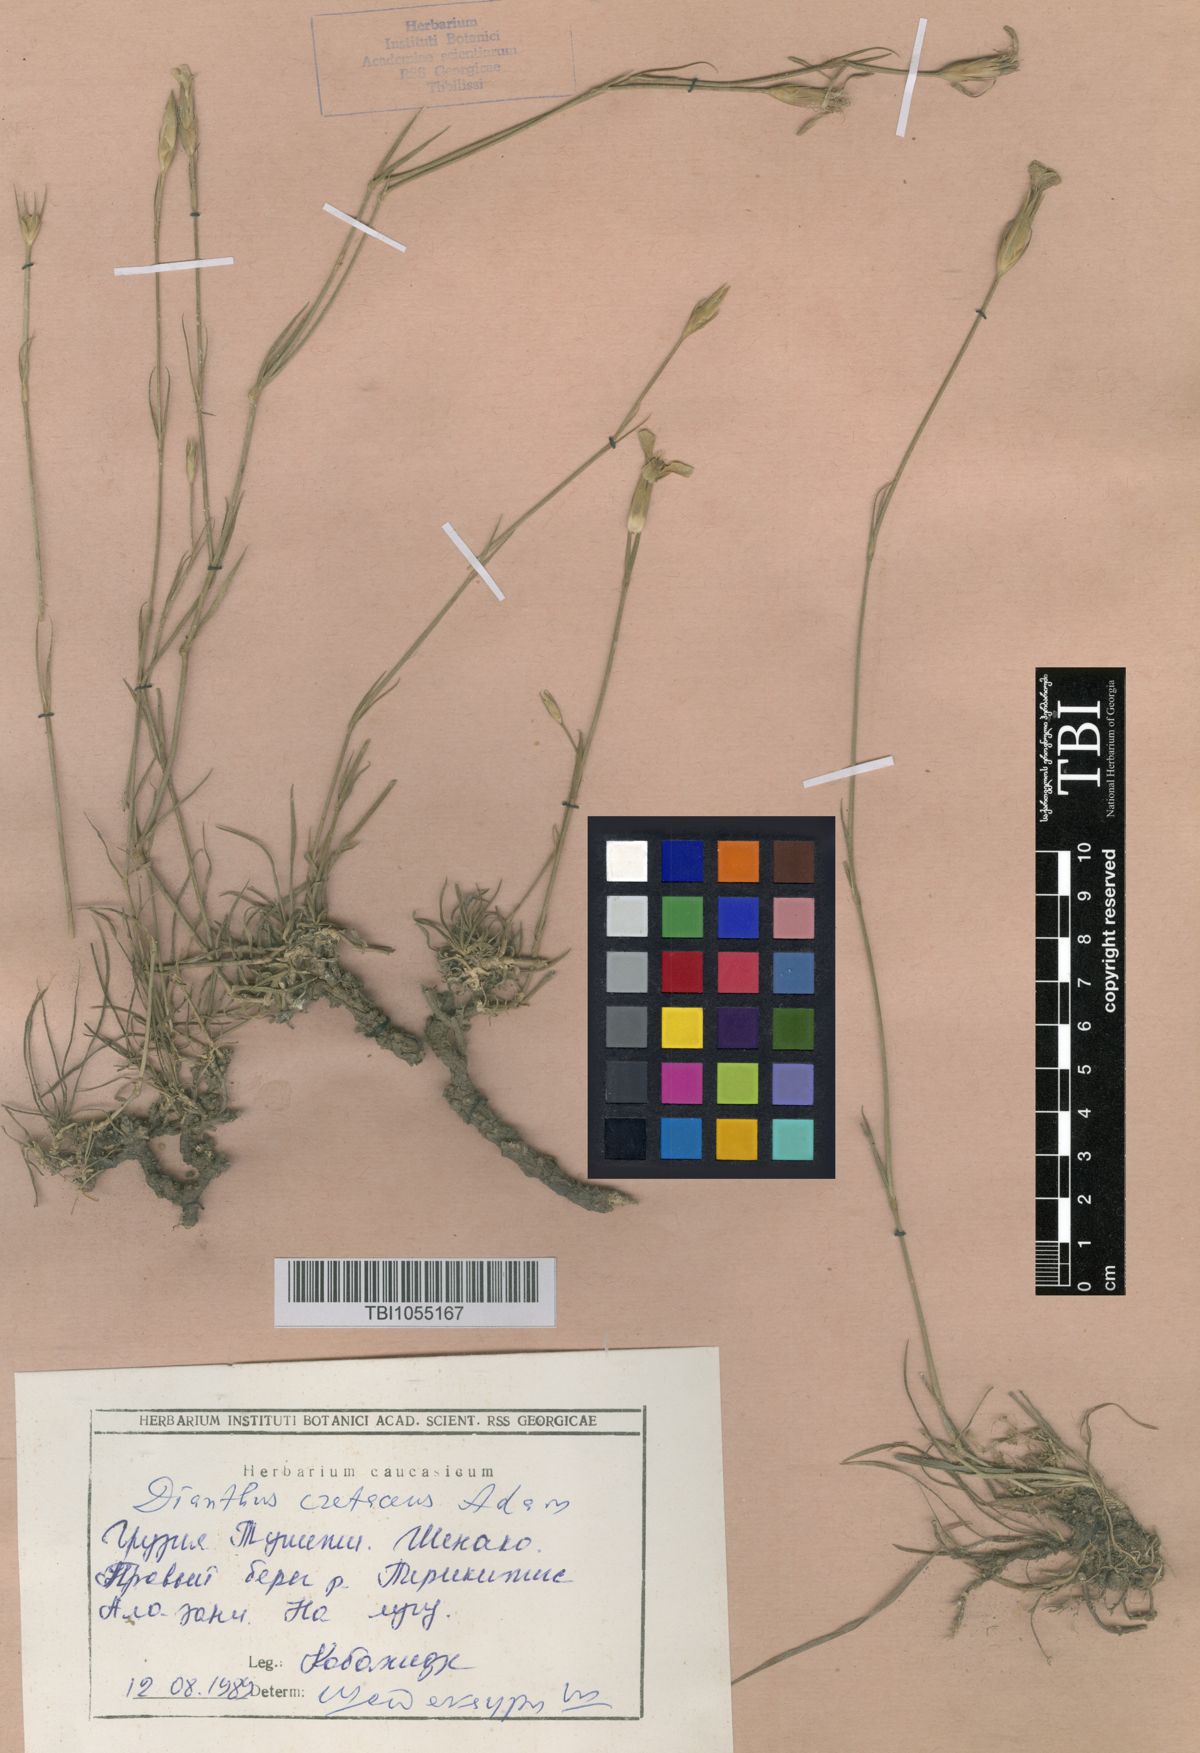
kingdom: Plantae
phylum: Tracheophyta
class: Magnoliopsida
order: Caryophyllales
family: Caryophyllaceae
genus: Dianthus
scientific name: Dianthus cretaceus
